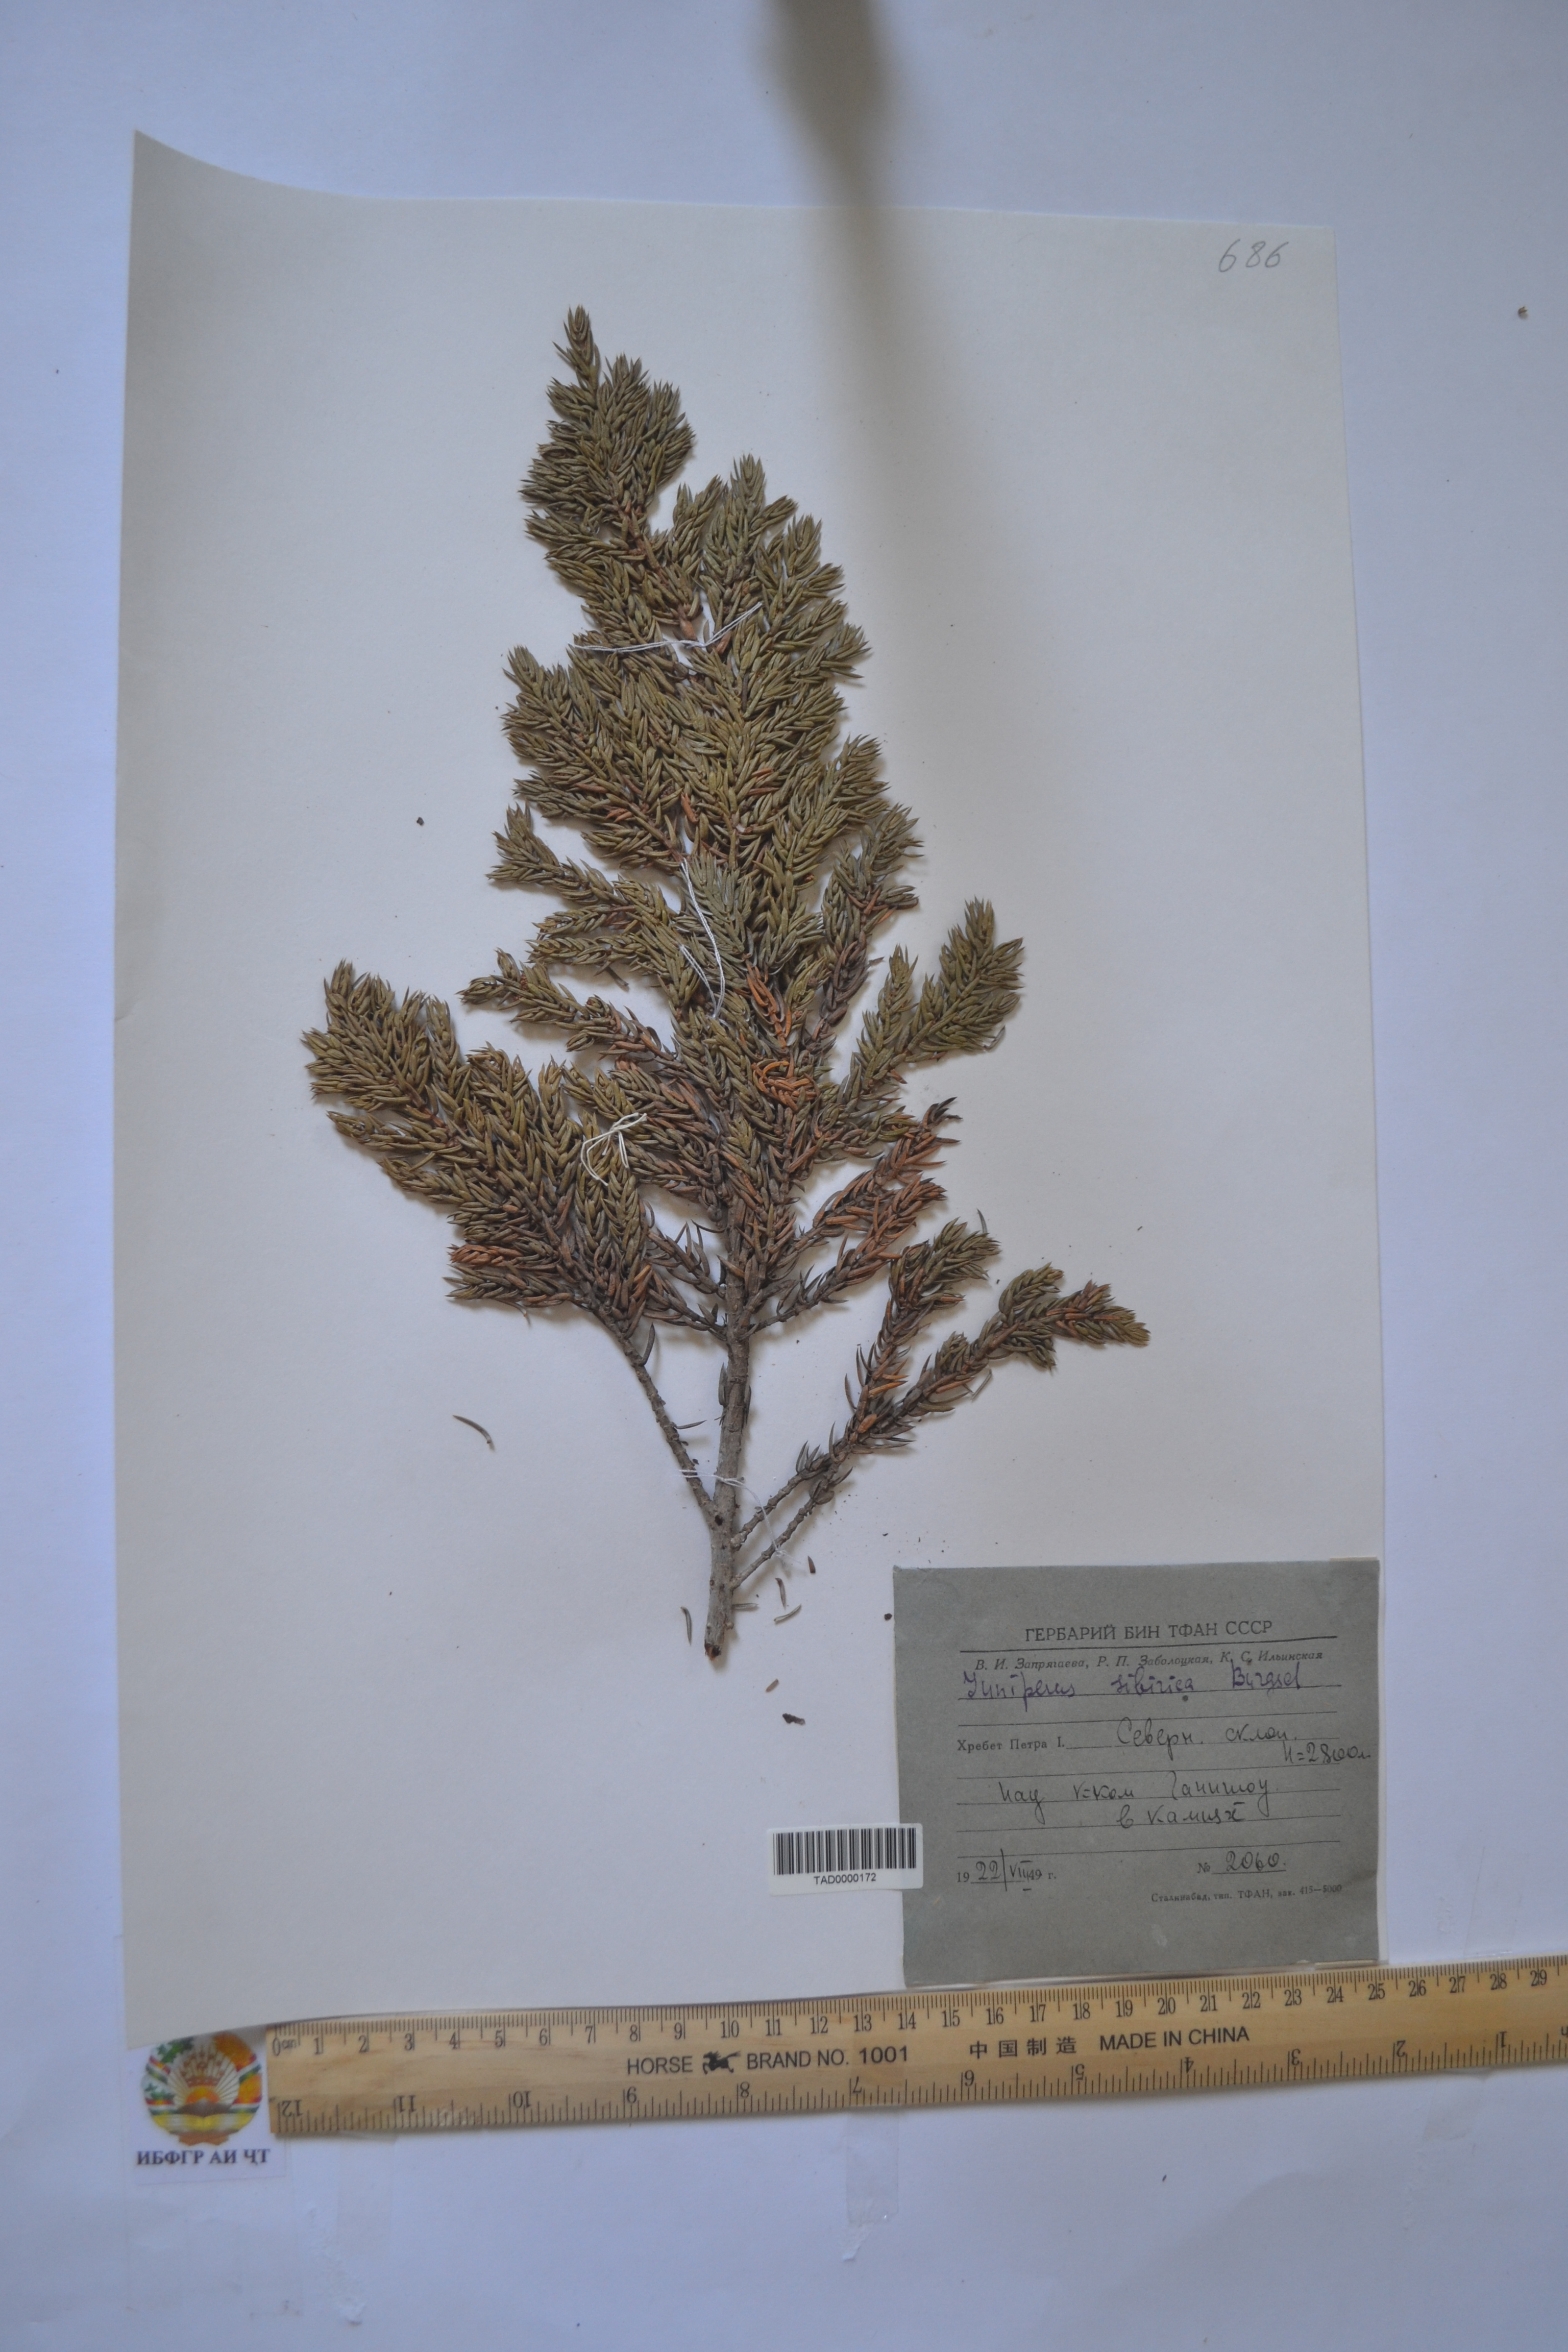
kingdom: Plantae
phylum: Tracheophyta
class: Pinopsida
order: Pinales
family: Cupressaceae
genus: Juniperus
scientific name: Juniperus communis
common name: Common juniper
